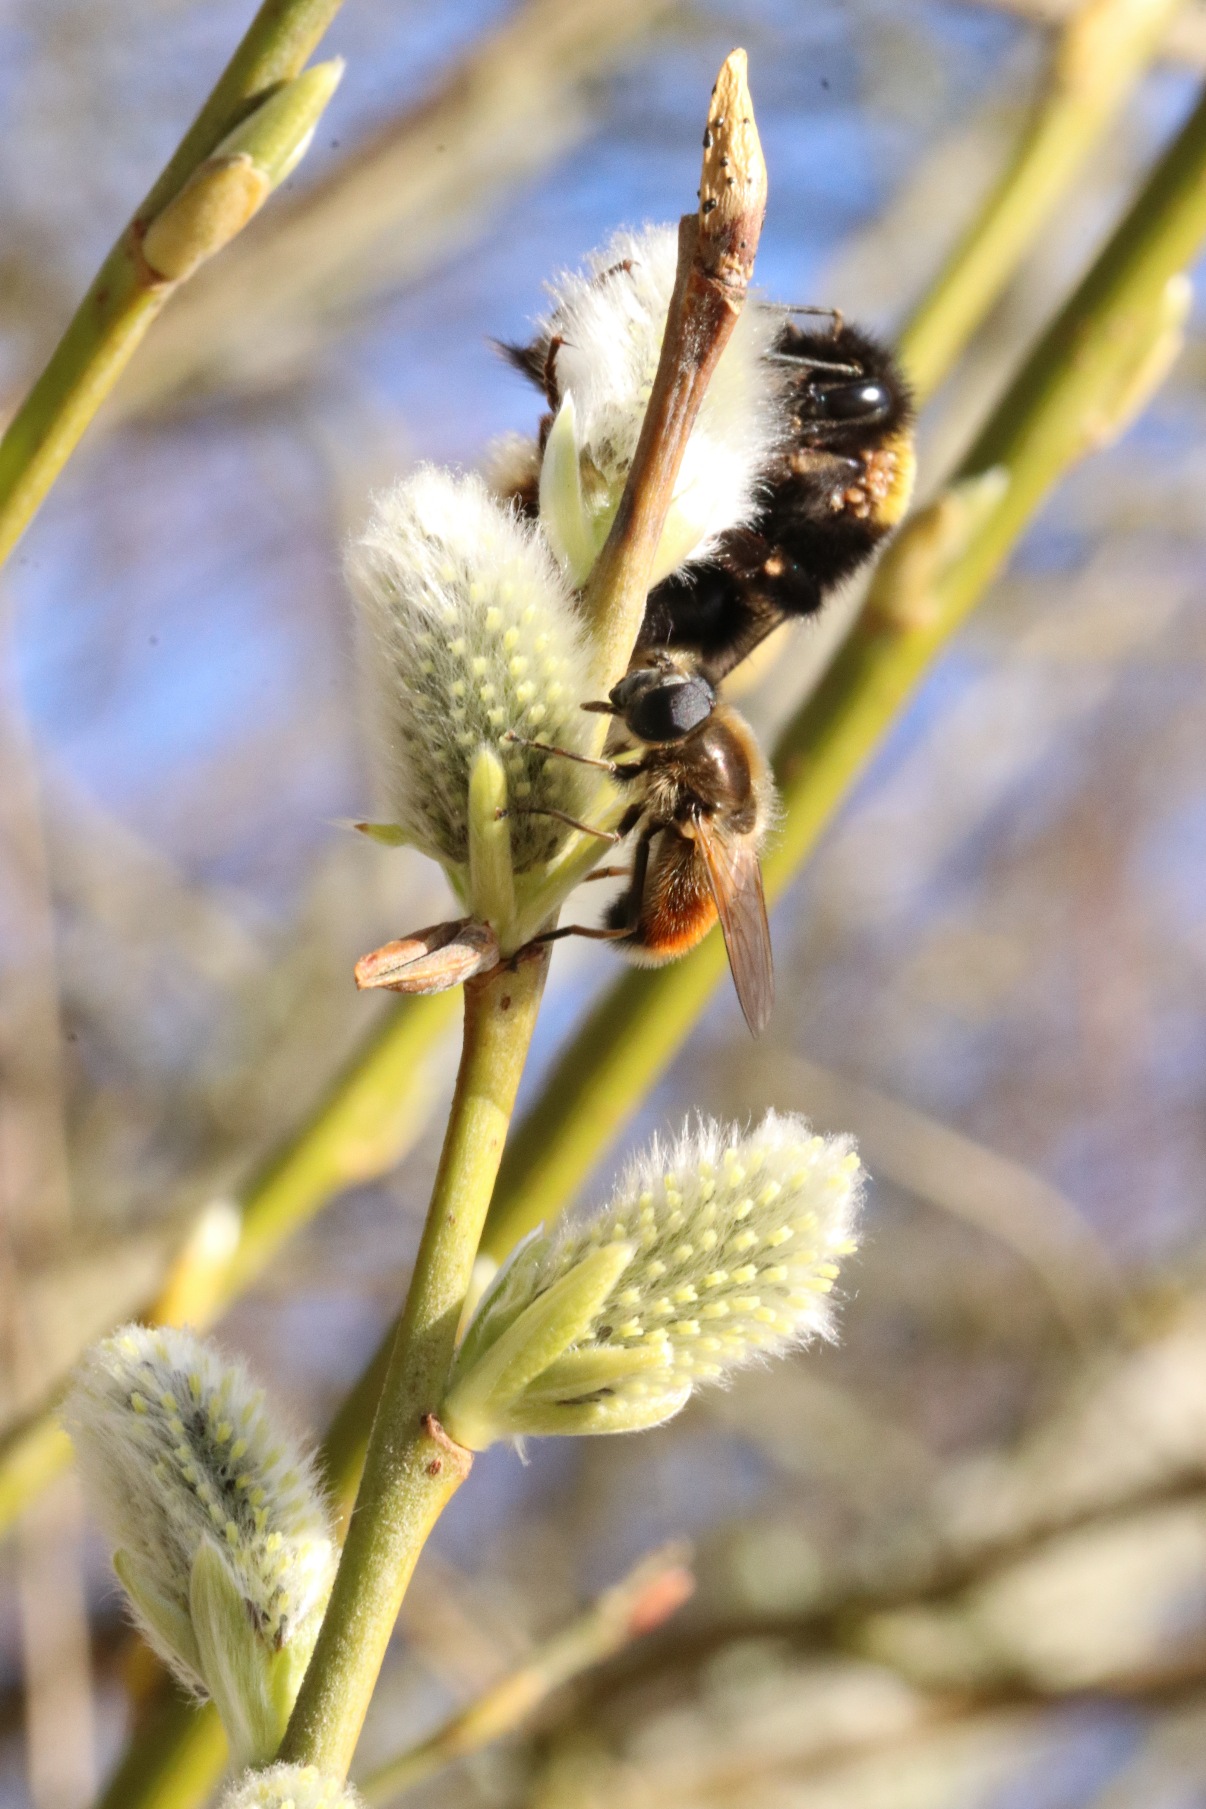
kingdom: Animalia
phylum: Arthropoda
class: Insecta
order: Diptera
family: Syrphidae
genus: Cheilosia
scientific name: Cheilosia corydon
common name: Ræverød urtesvirreflue
